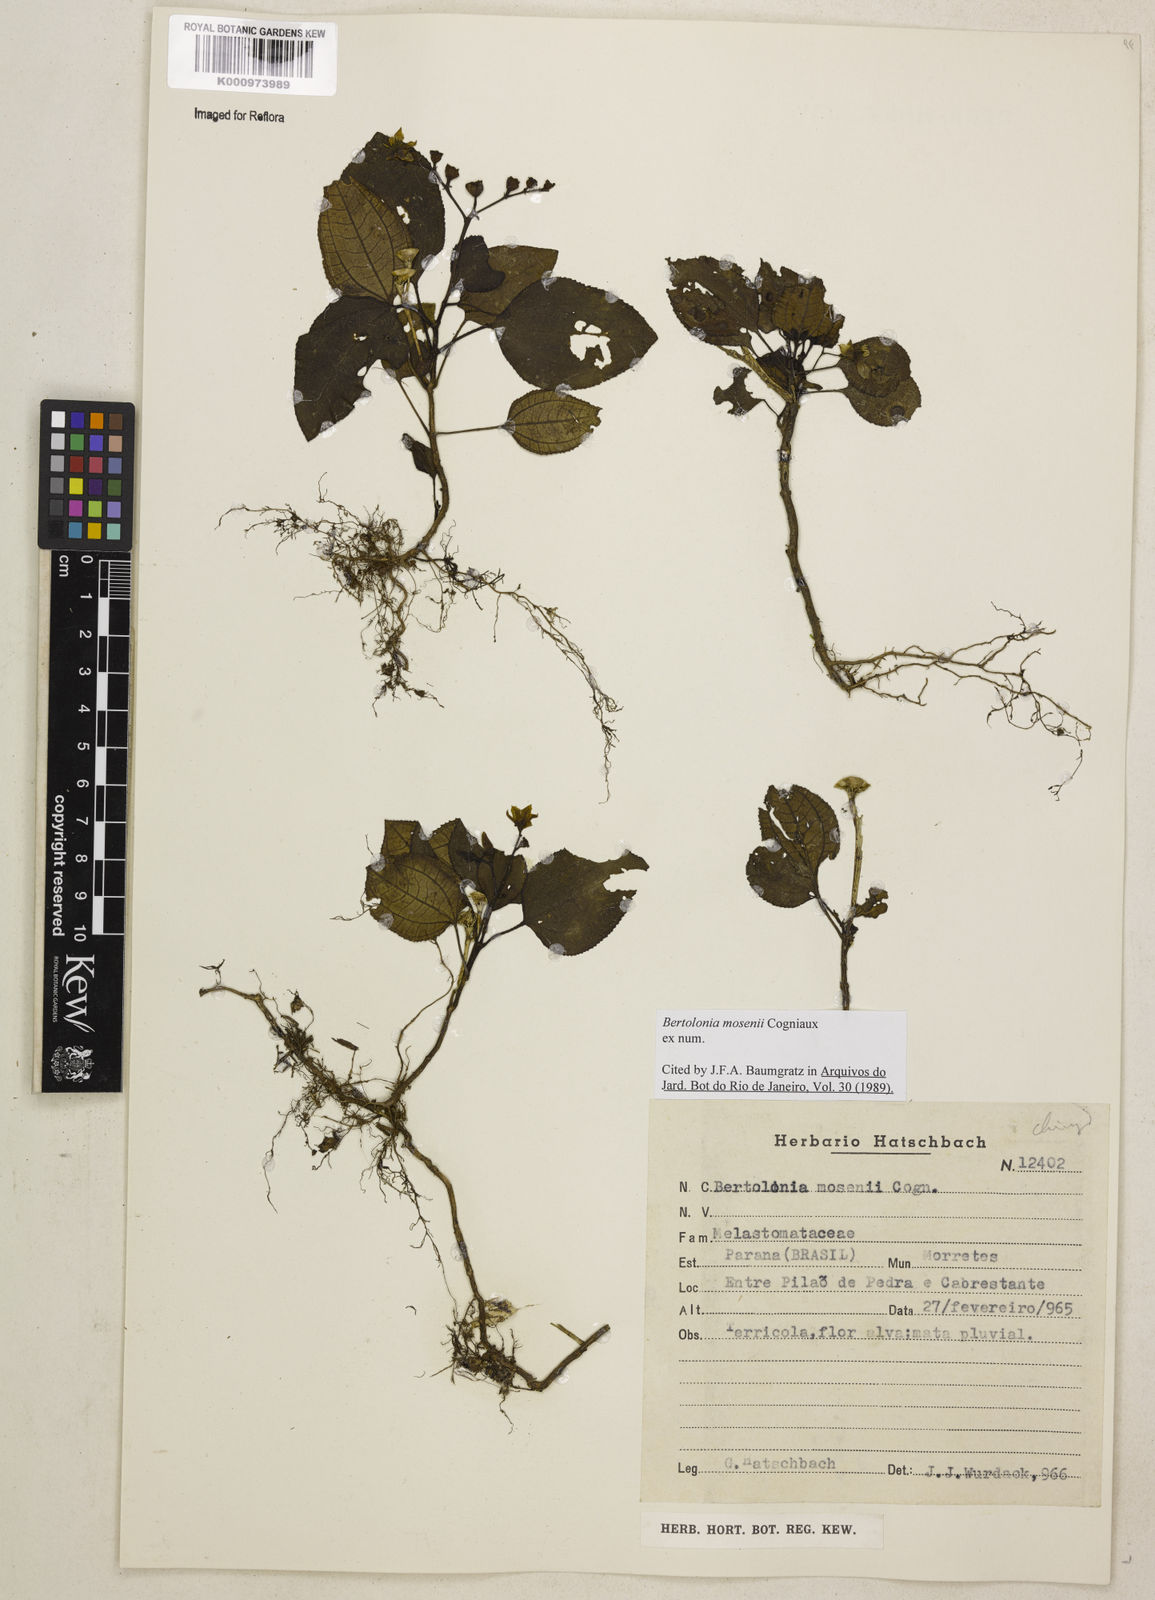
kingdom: Plantae
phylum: Tracheophyta
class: Magnoliopsida
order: Myrtales
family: Melastomataceae
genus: Bertolonia
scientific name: Bertolonia mosenii
